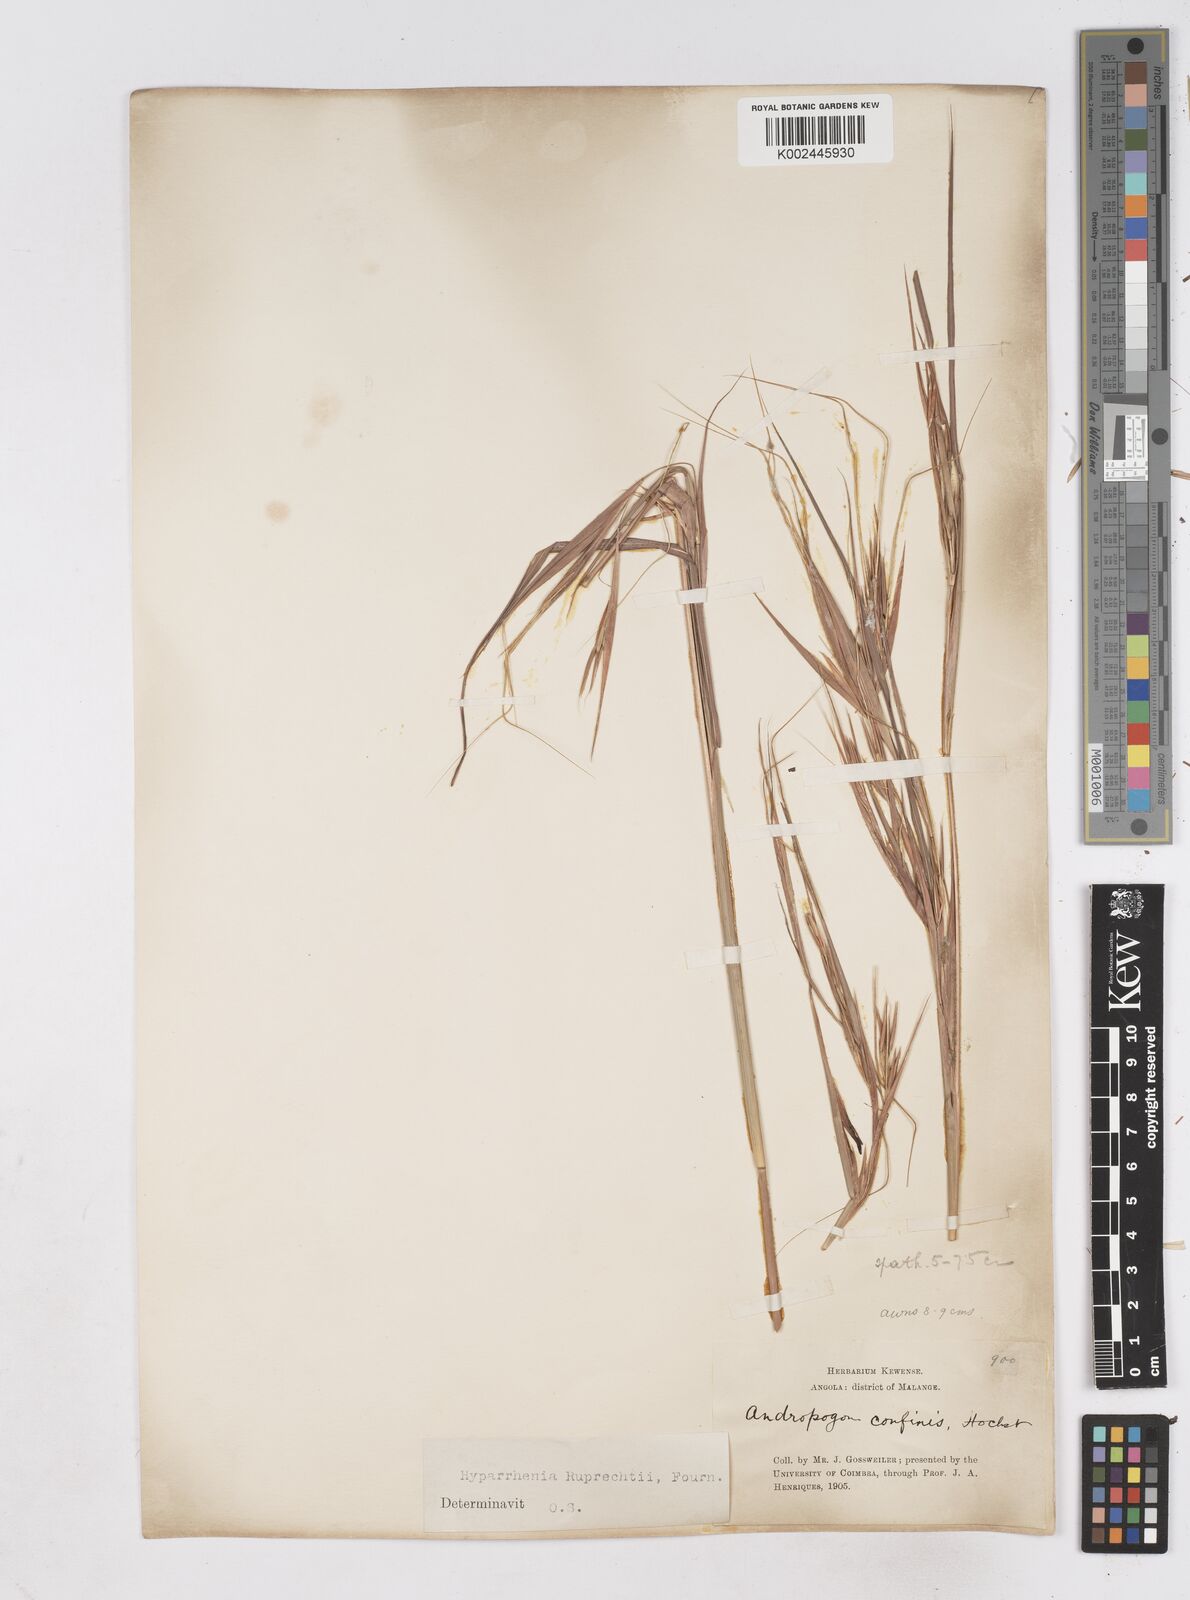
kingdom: Plantae
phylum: Tracheophyta
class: Liliopsida
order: Poales
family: Poaceae
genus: Hyperthelia
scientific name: Hyperthelia dissoluta
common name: Yellow thatching grass
